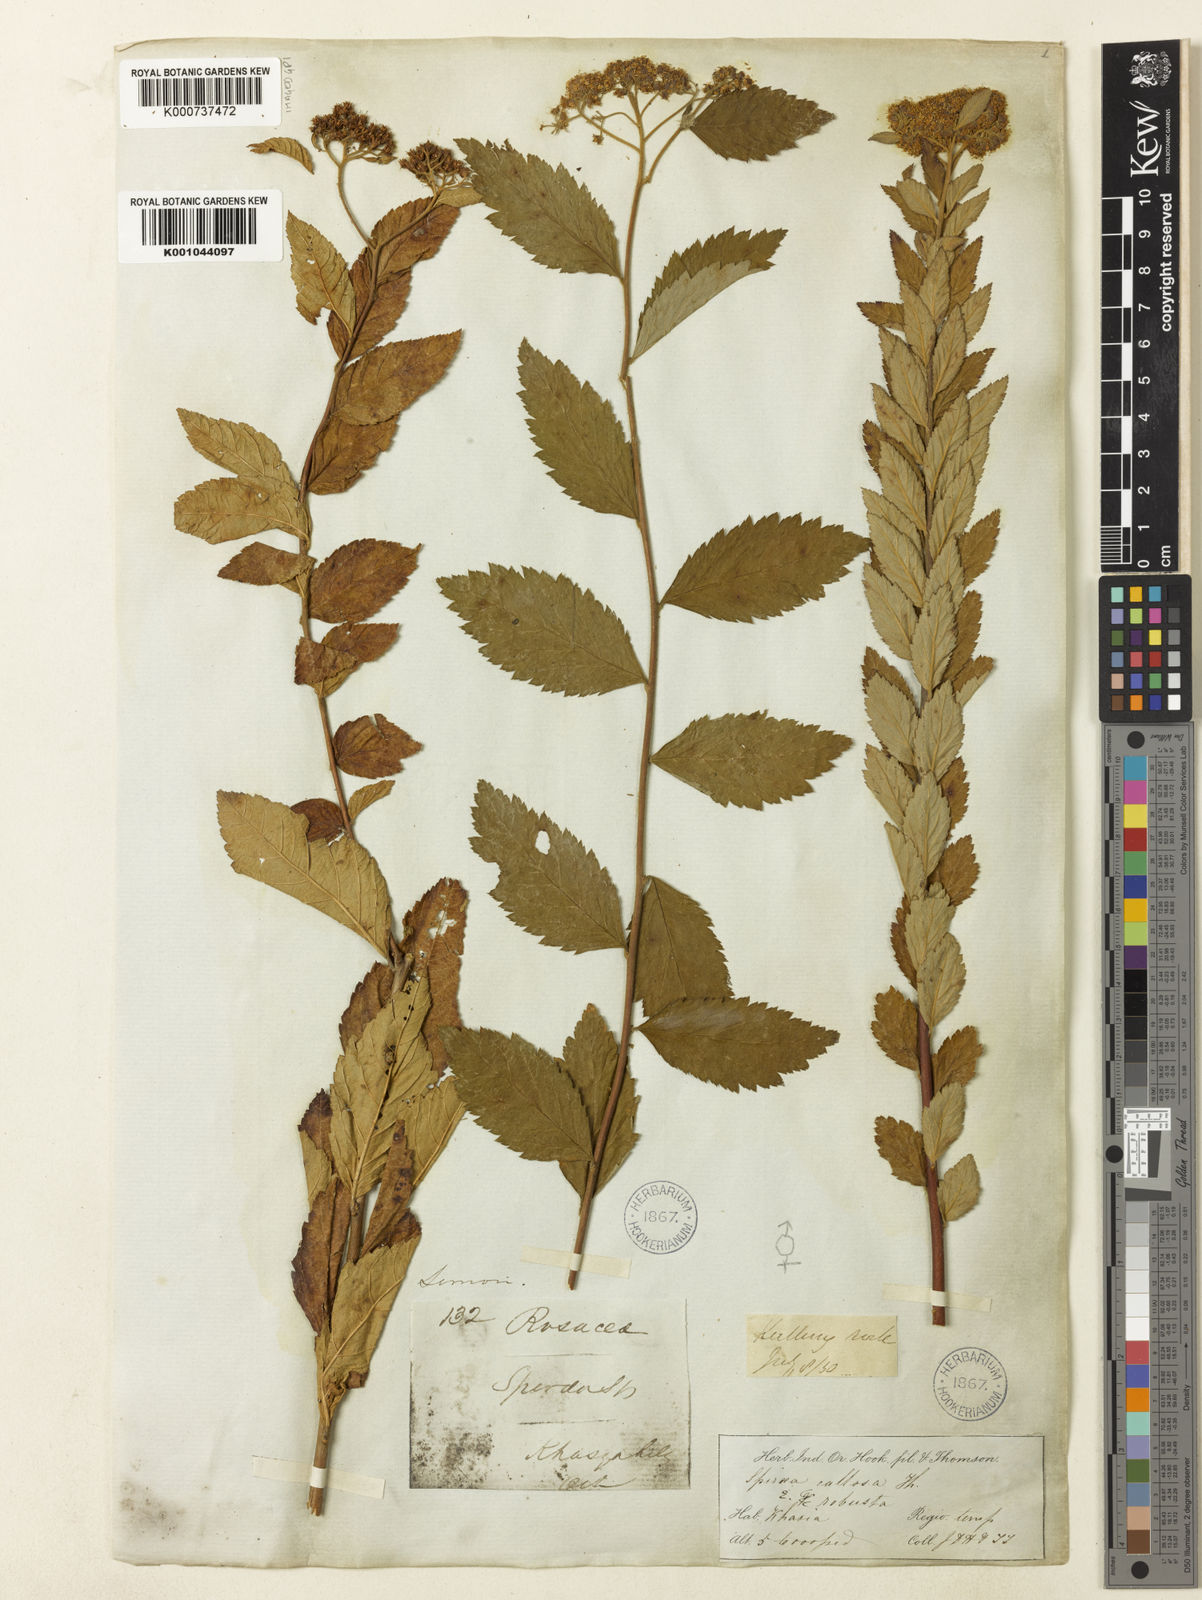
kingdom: Plantae
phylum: Tracheophyta
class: Magnoliopsida
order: Rosales
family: Rosaceae
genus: Spiraea
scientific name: Spiraea japonica
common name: Japanese spiraea
